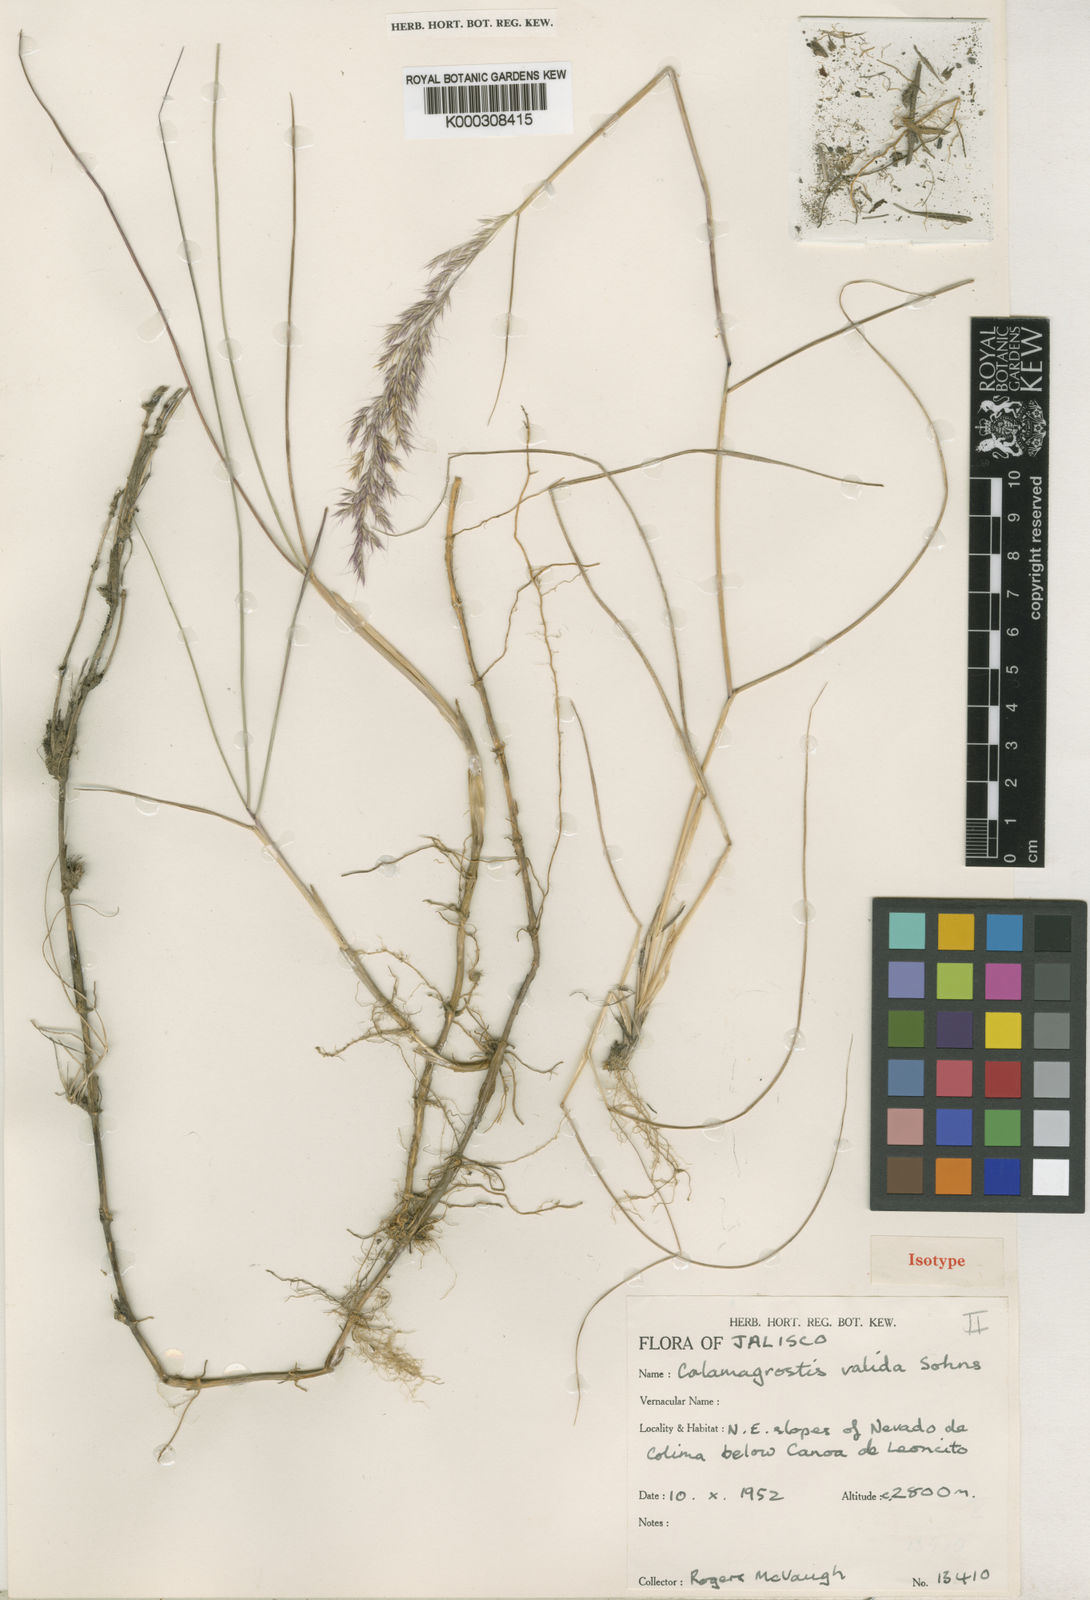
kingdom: Plantae
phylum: Tracheophyta
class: Liliopsida
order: Poales
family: Poaceae
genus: Peyritschia
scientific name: Peyritschia valida
